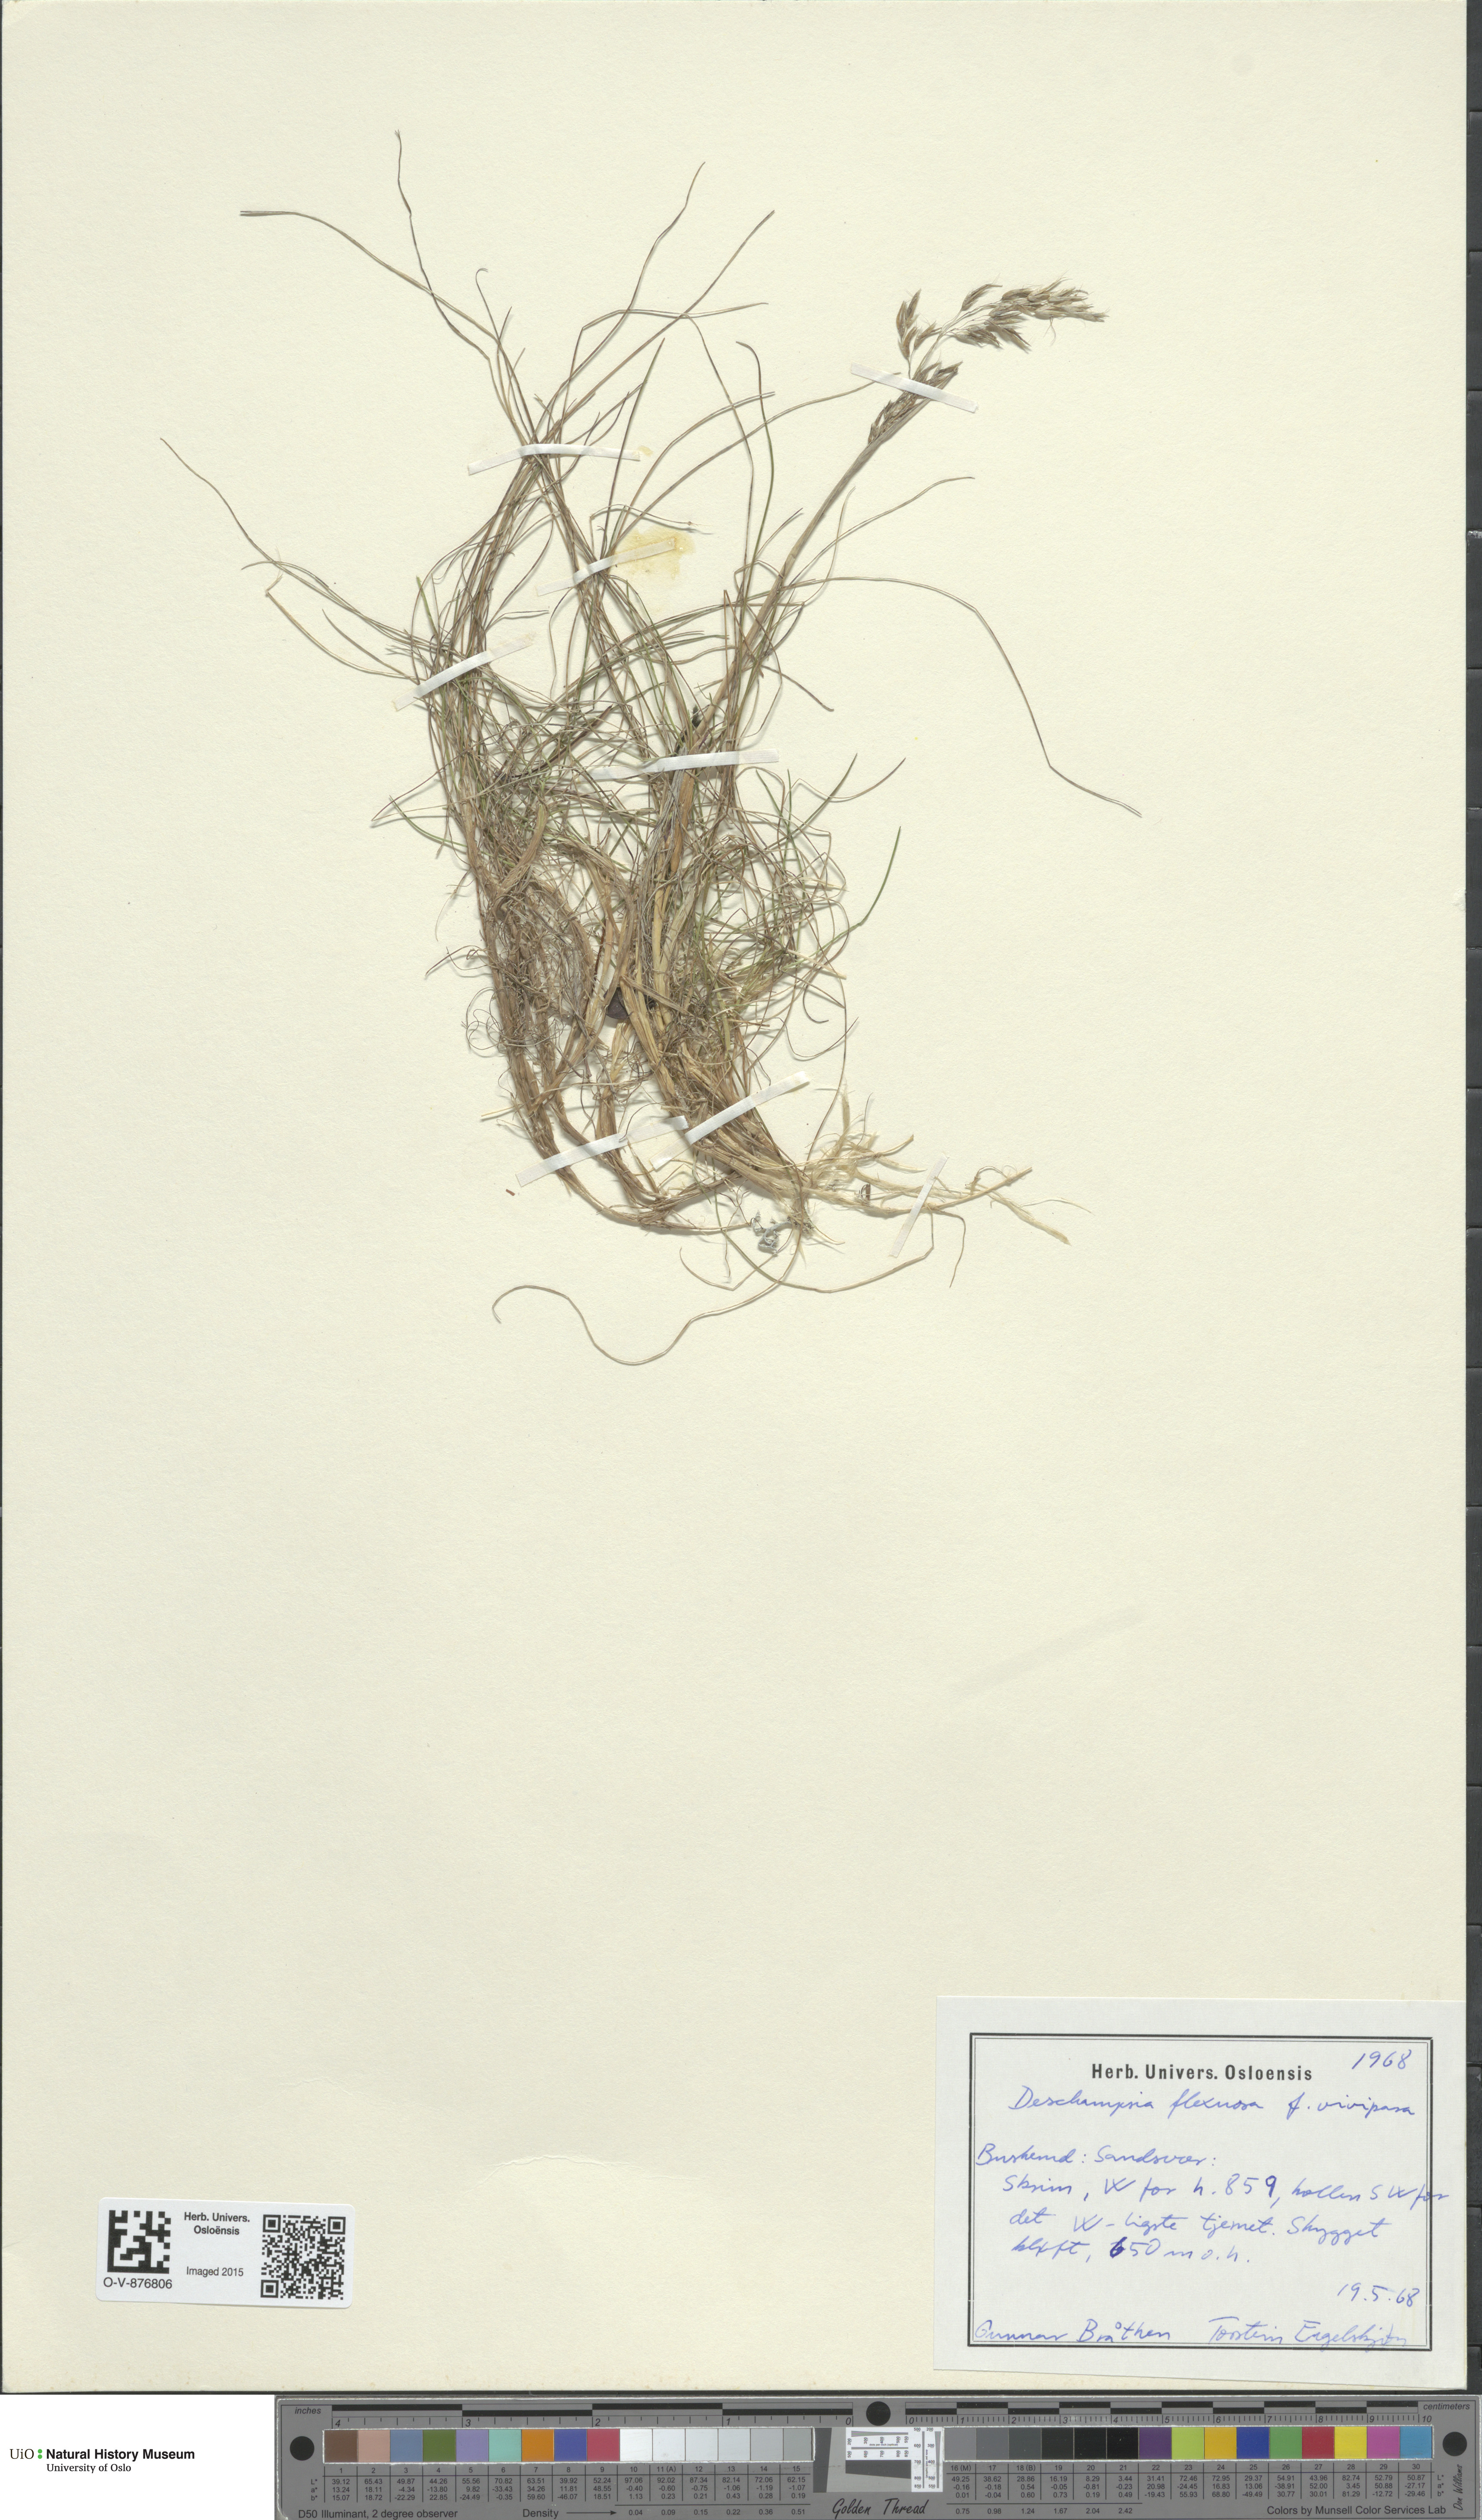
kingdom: Plantae
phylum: Tracheophyta
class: Liliopsida
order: Poales
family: Poaceae
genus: Avenella
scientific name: Avenella flexuosa
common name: Wavy hairgrass
